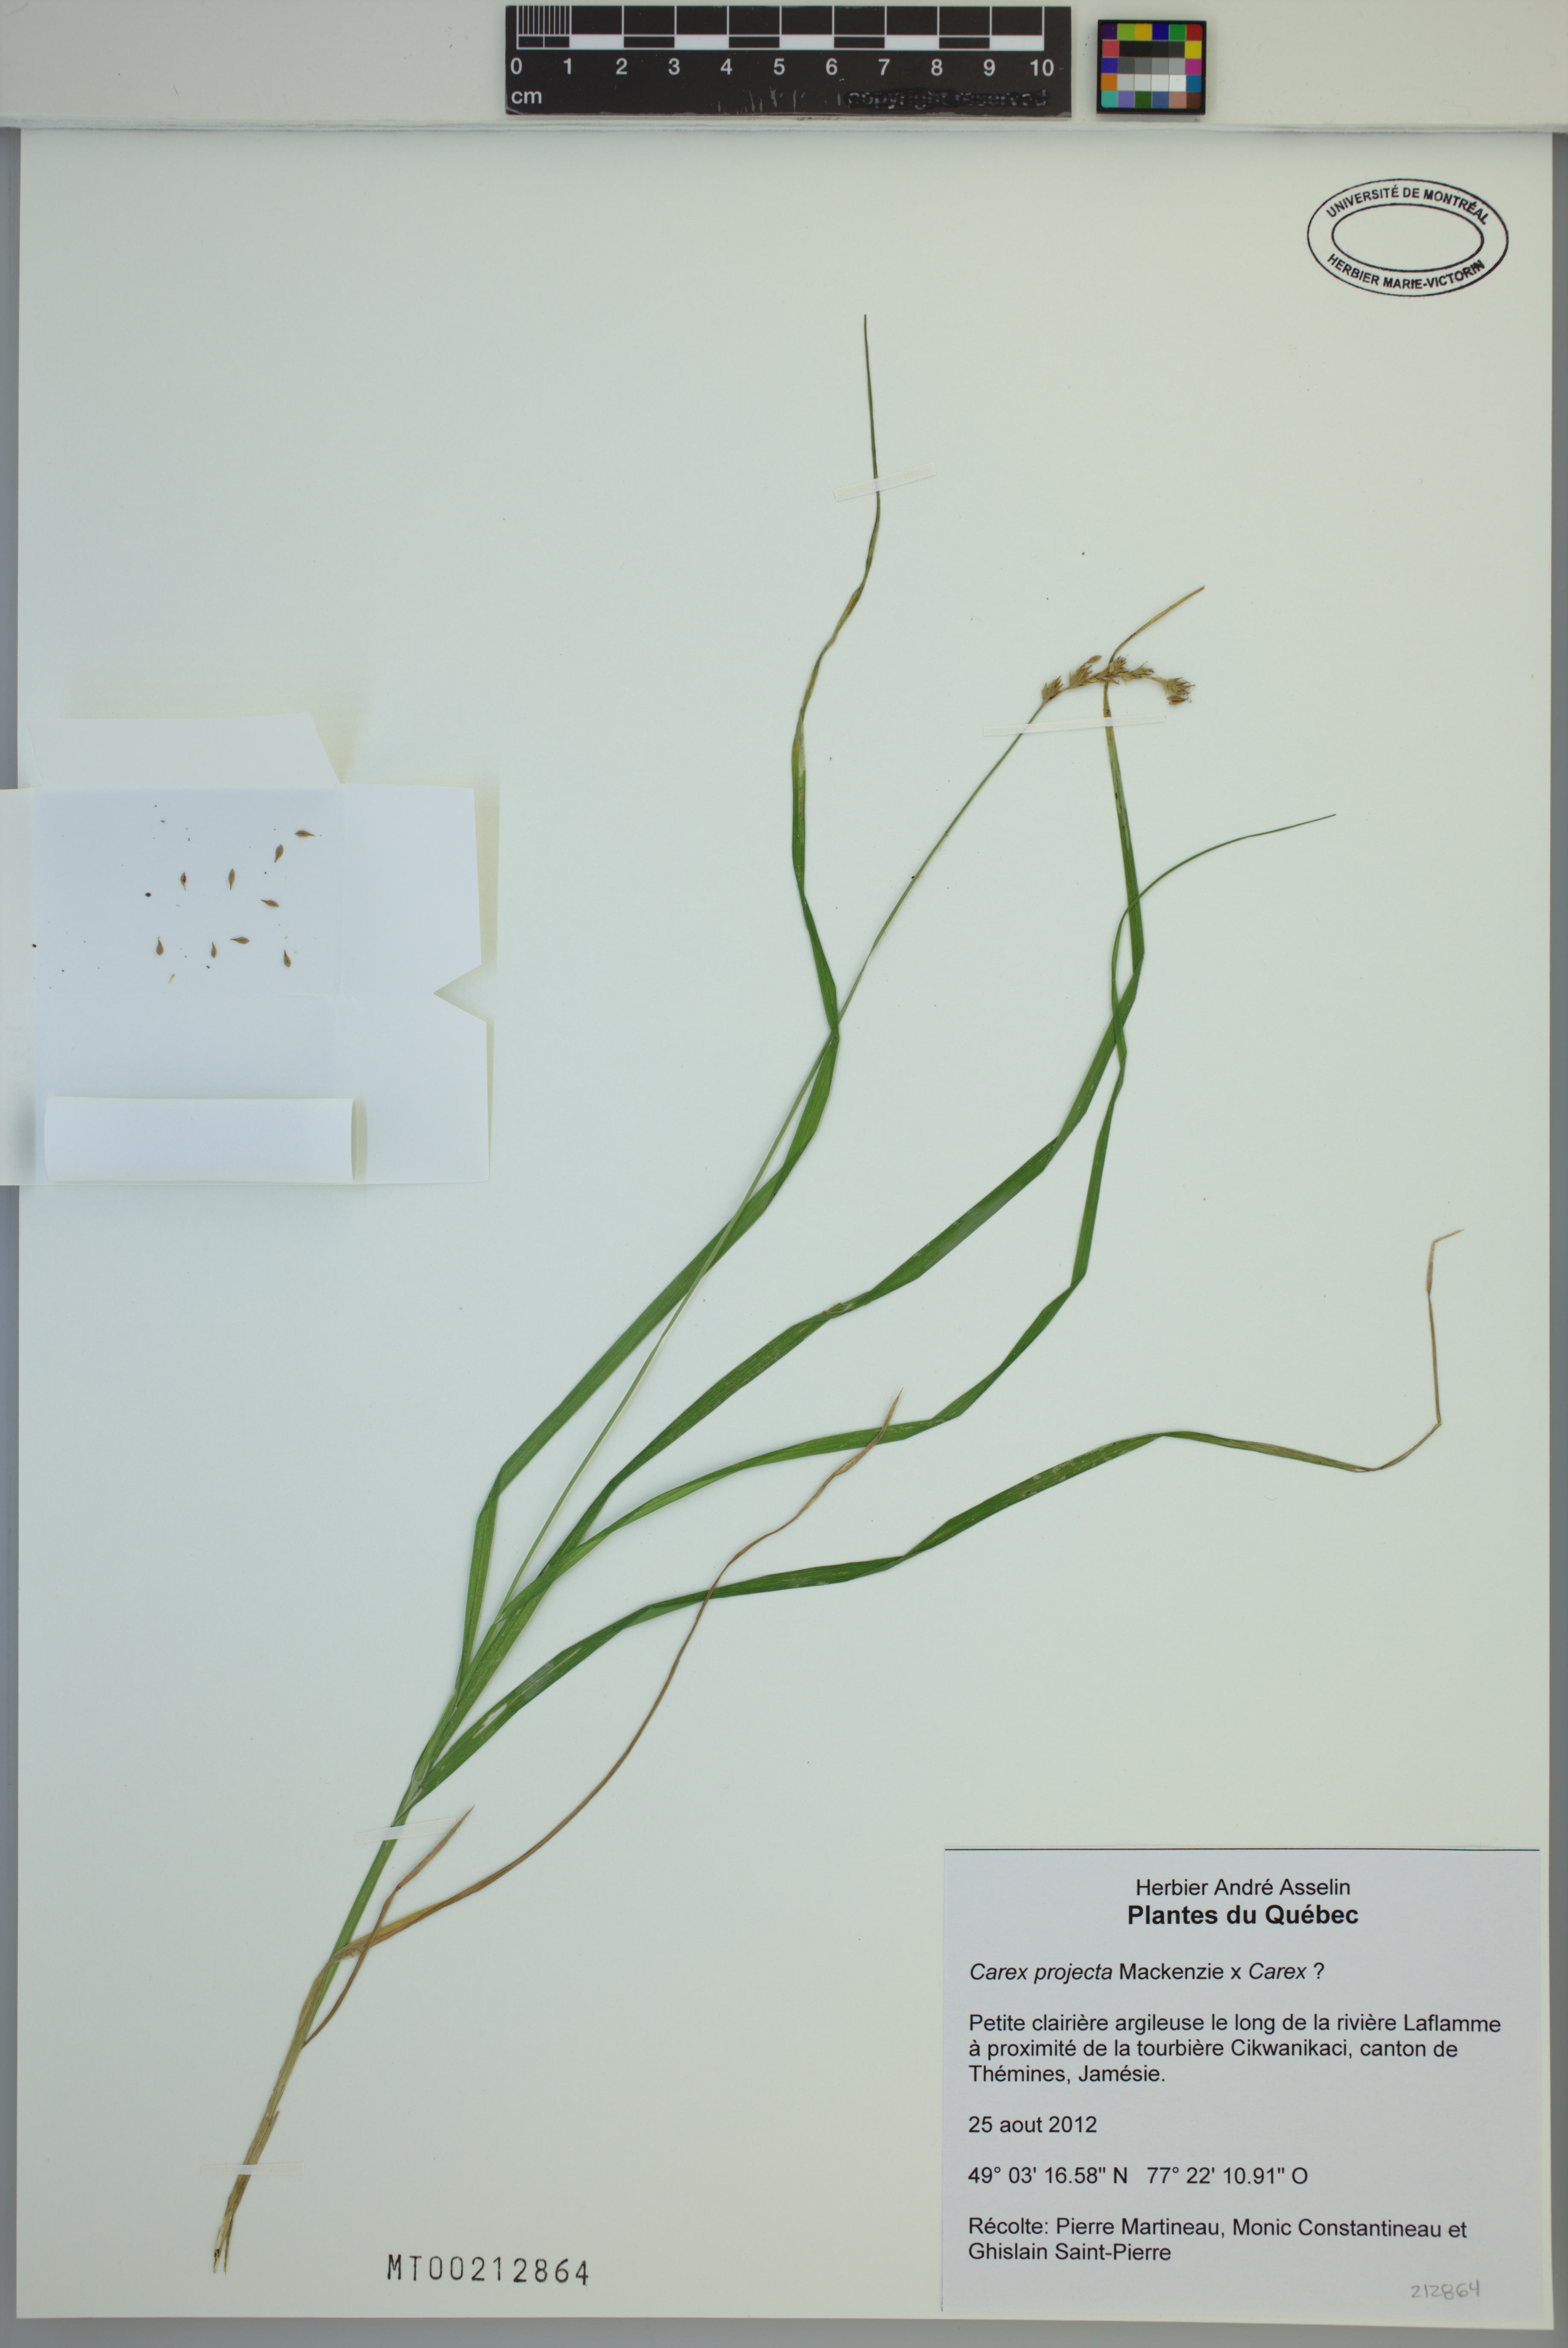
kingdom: Plantae
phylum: Tracheophyta
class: Liliopsida
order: Poales
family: Cyperaceae
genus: Carex
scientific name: Carex projecta
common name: Loose-headed oval sedge
